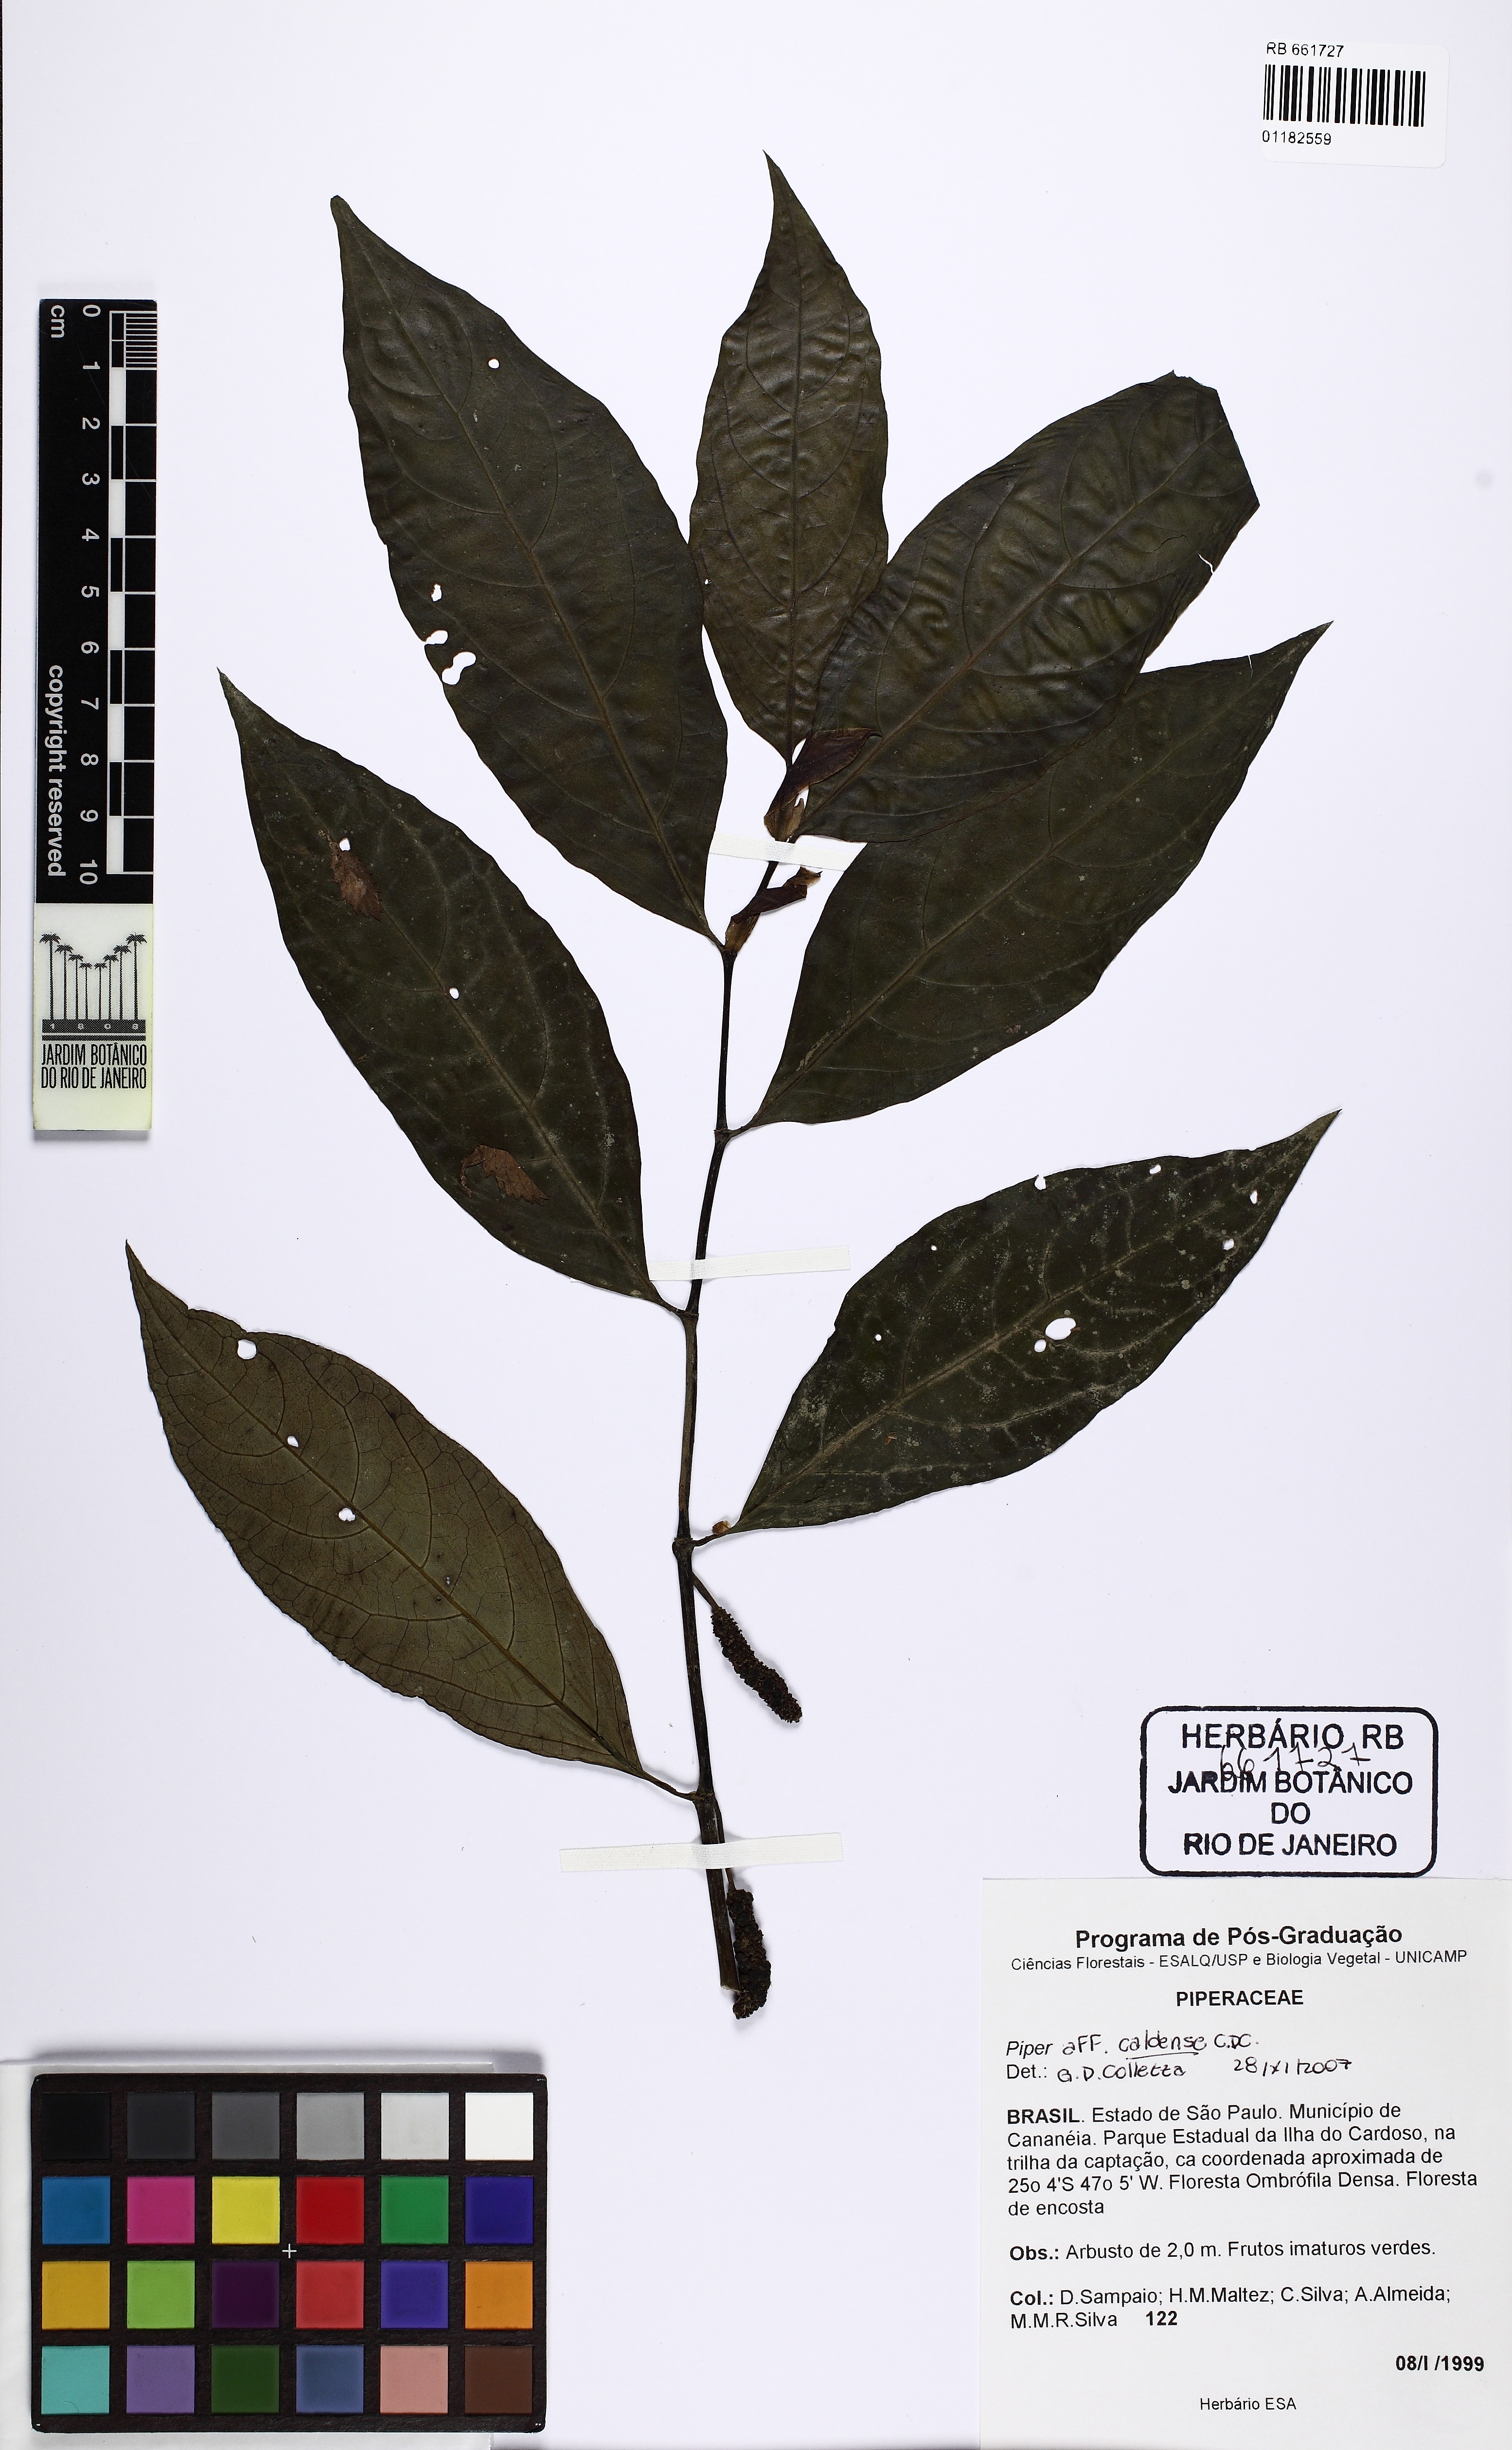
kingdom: Plantae
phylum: Tracheophyta
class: Magnoliopsida
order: Piperales
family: Piperaceae
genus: Piper
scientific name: Piper caldense
